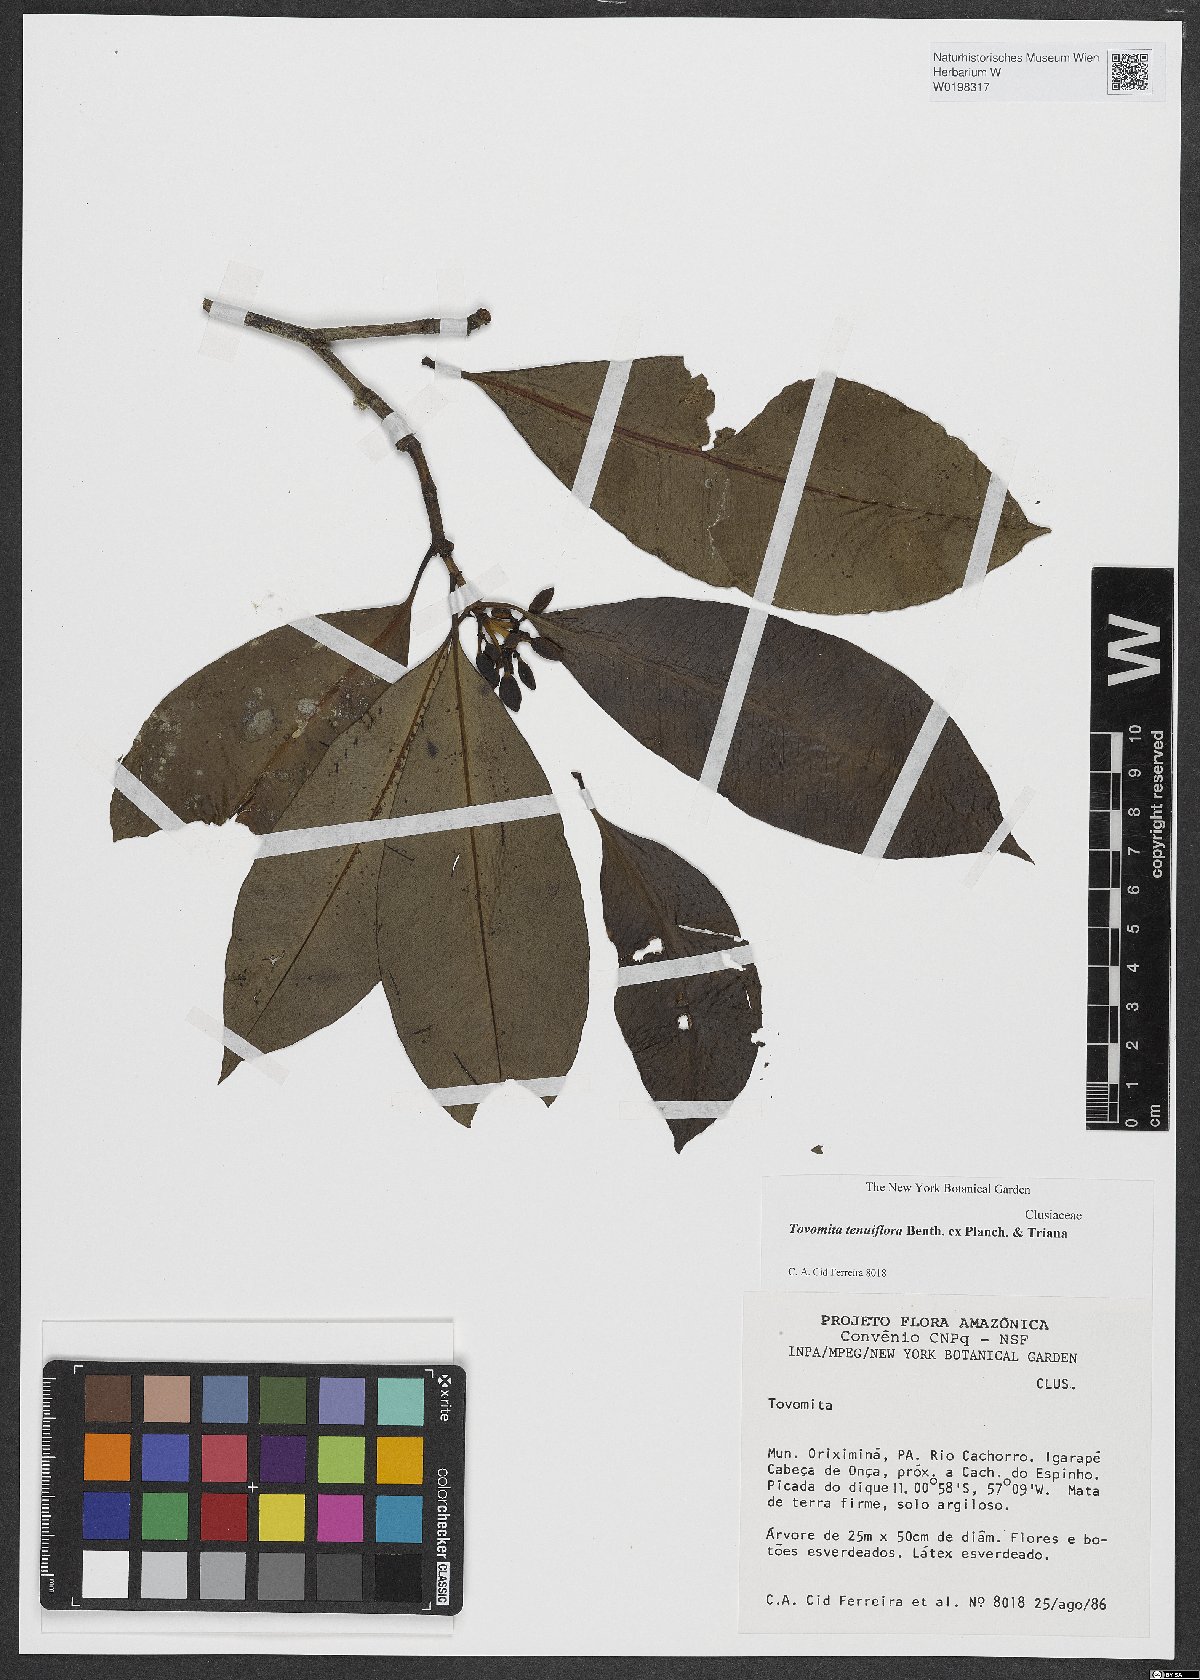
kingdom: Plantae
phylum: Tracheophyta
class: Magnoliopsida
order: Malpighiales
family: Clusiaceae
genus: Tovomita
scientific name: Tovomita tenuiflora
